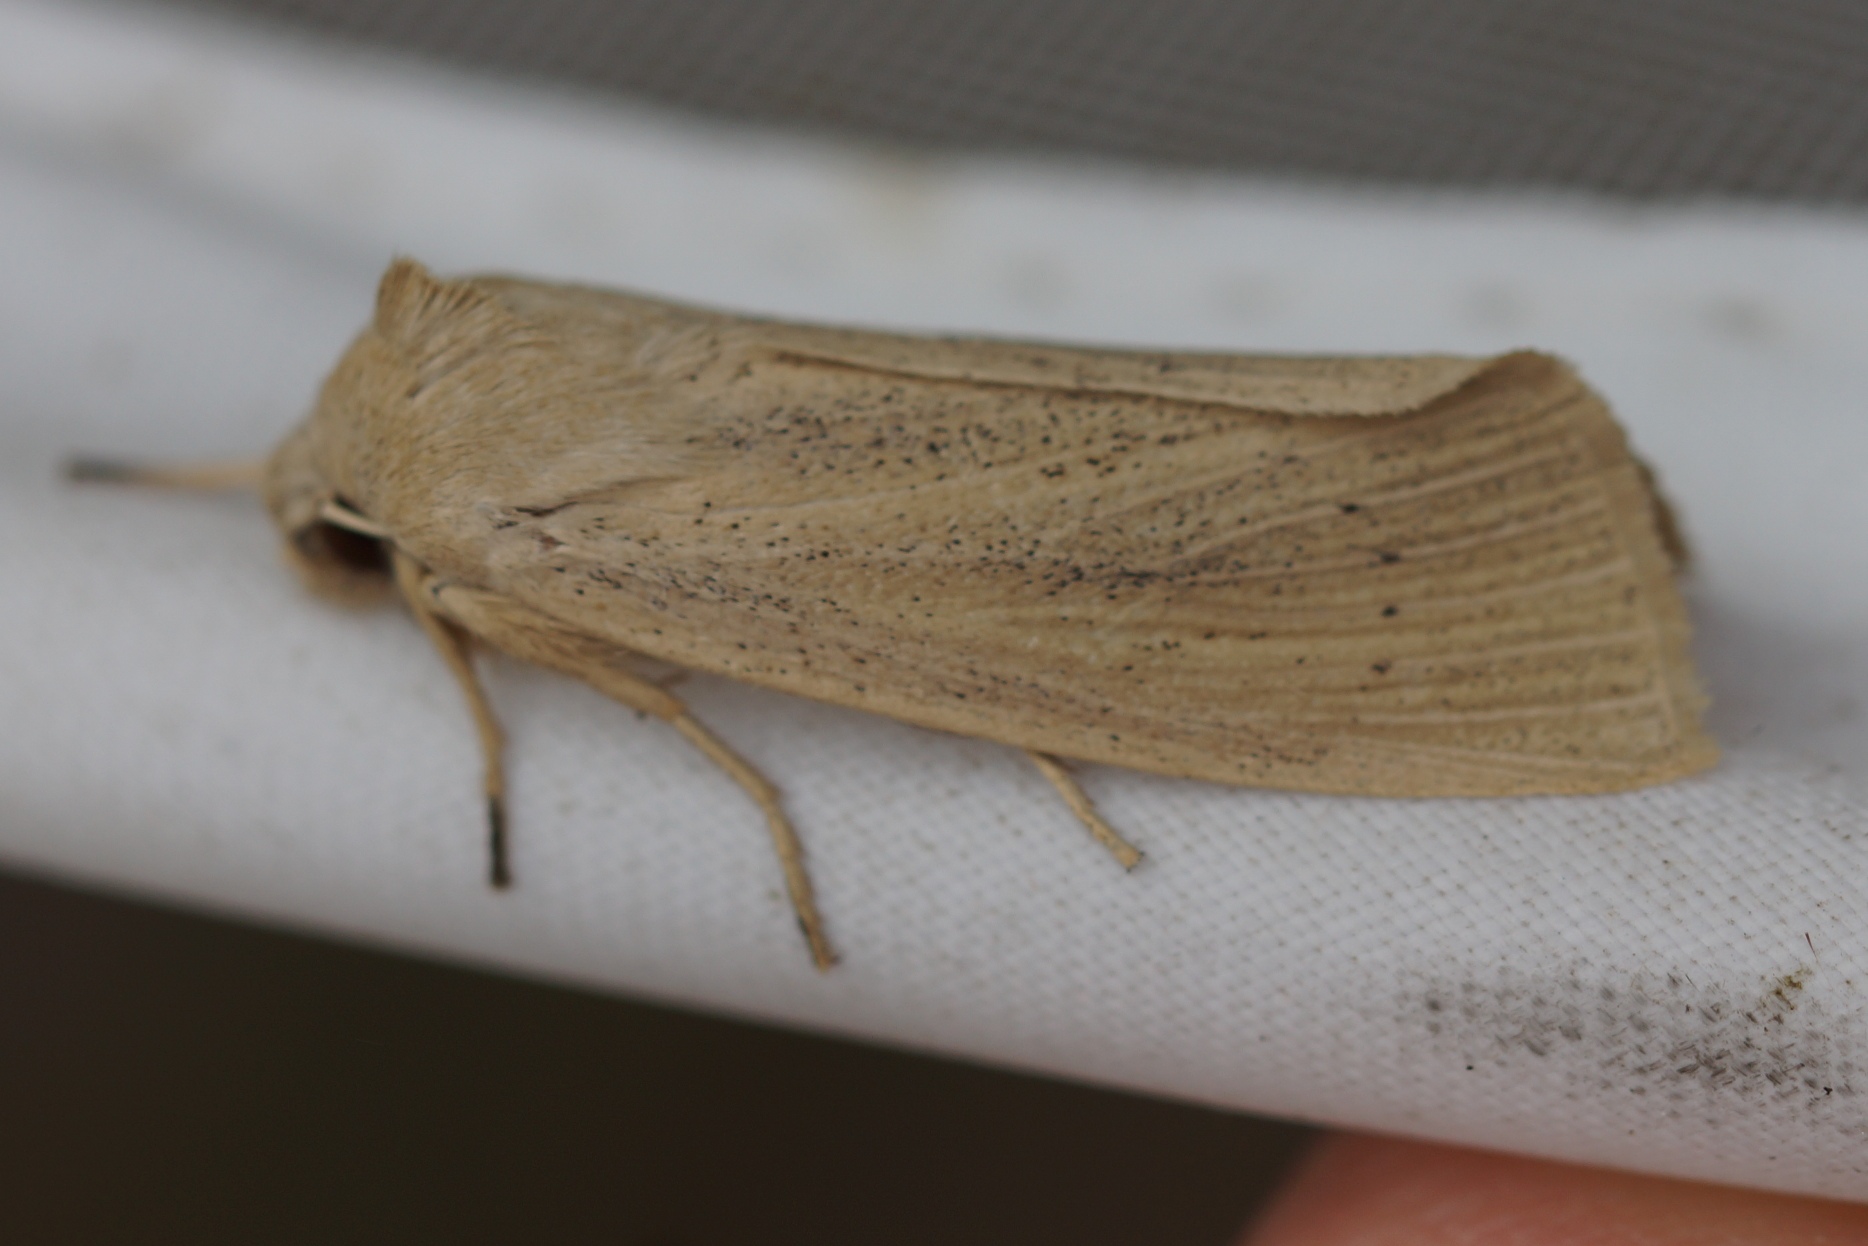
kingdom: Animalia
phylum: Arthropoda
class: Insecta
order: Lepidoptera
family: Noctuidae
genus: Rhizedra
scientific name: Rhizedra lutosa
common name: Stor sivugle
